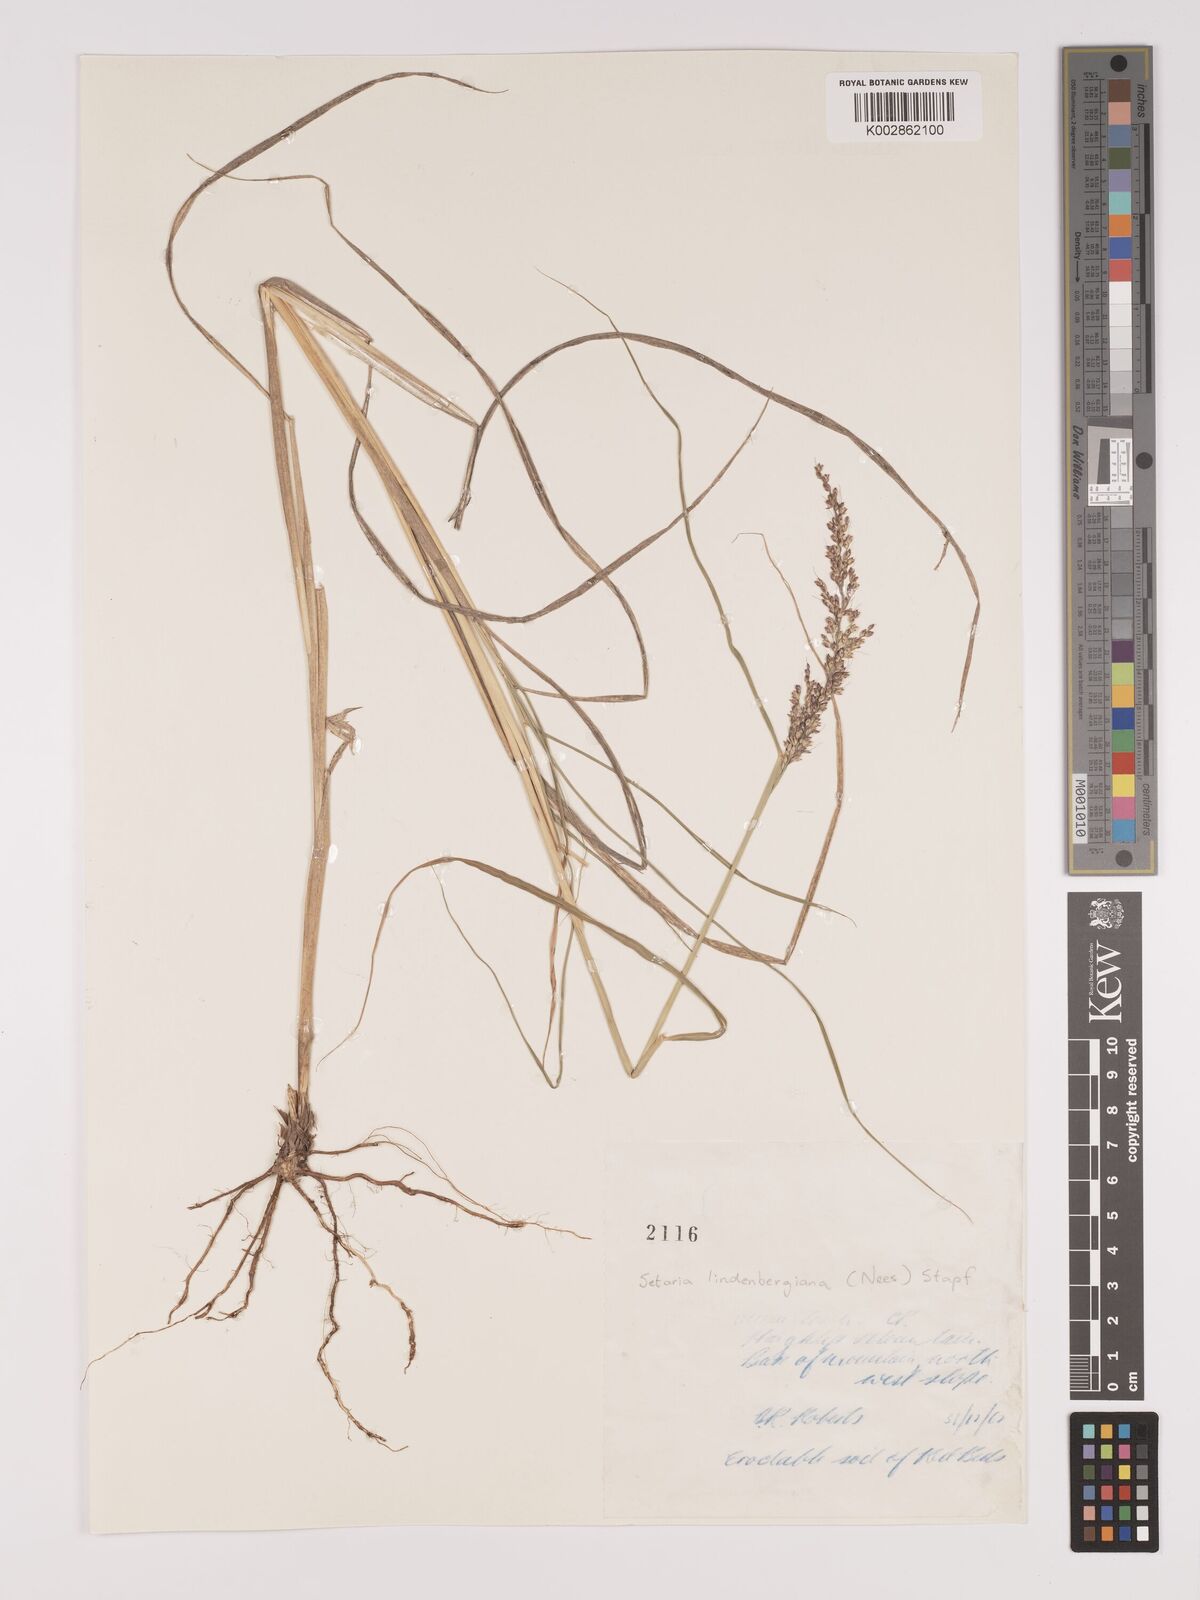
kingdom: Plantae
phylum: Tracheophyta
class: Liliopsida
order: Poales
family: Poaceae
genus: Setaria
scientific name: Setaria lindenbergiana
